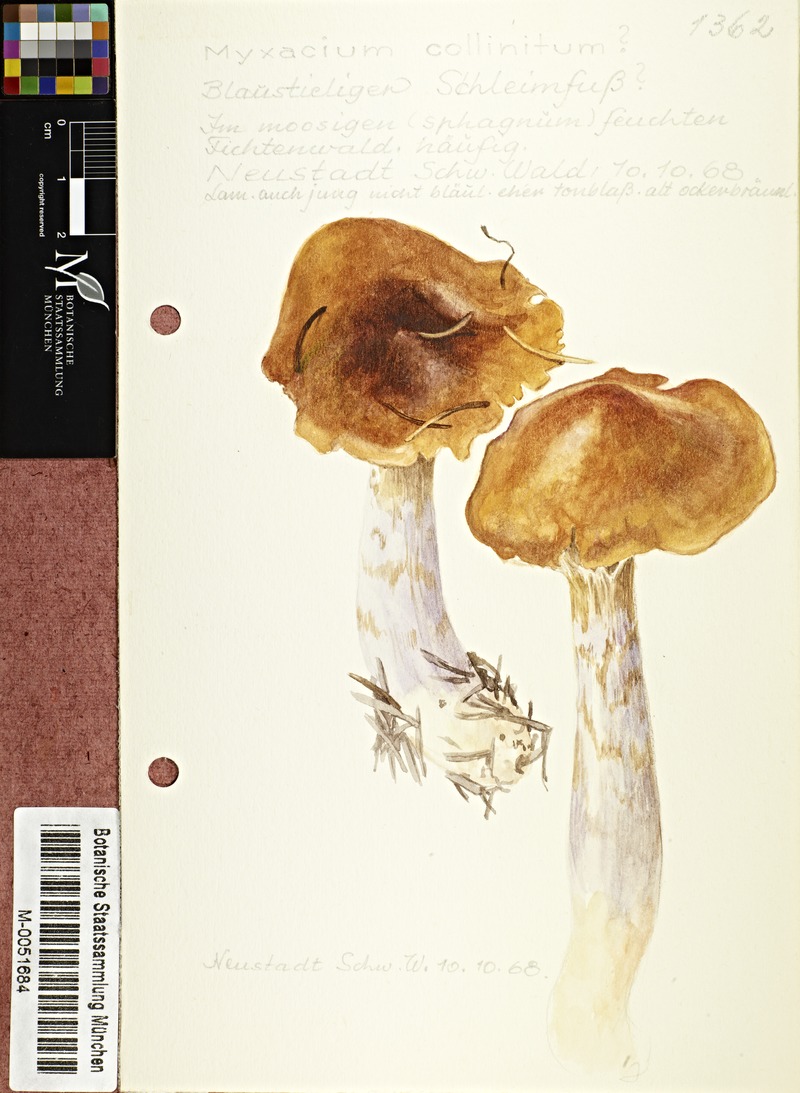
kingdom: Fungi
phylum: Basidiomycota
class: Agaricomycetes
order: Agaricales
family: Cortinariaceae
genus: Cortinarius
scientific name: Cortinarius collinitus
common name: Blue-girdled webcap
